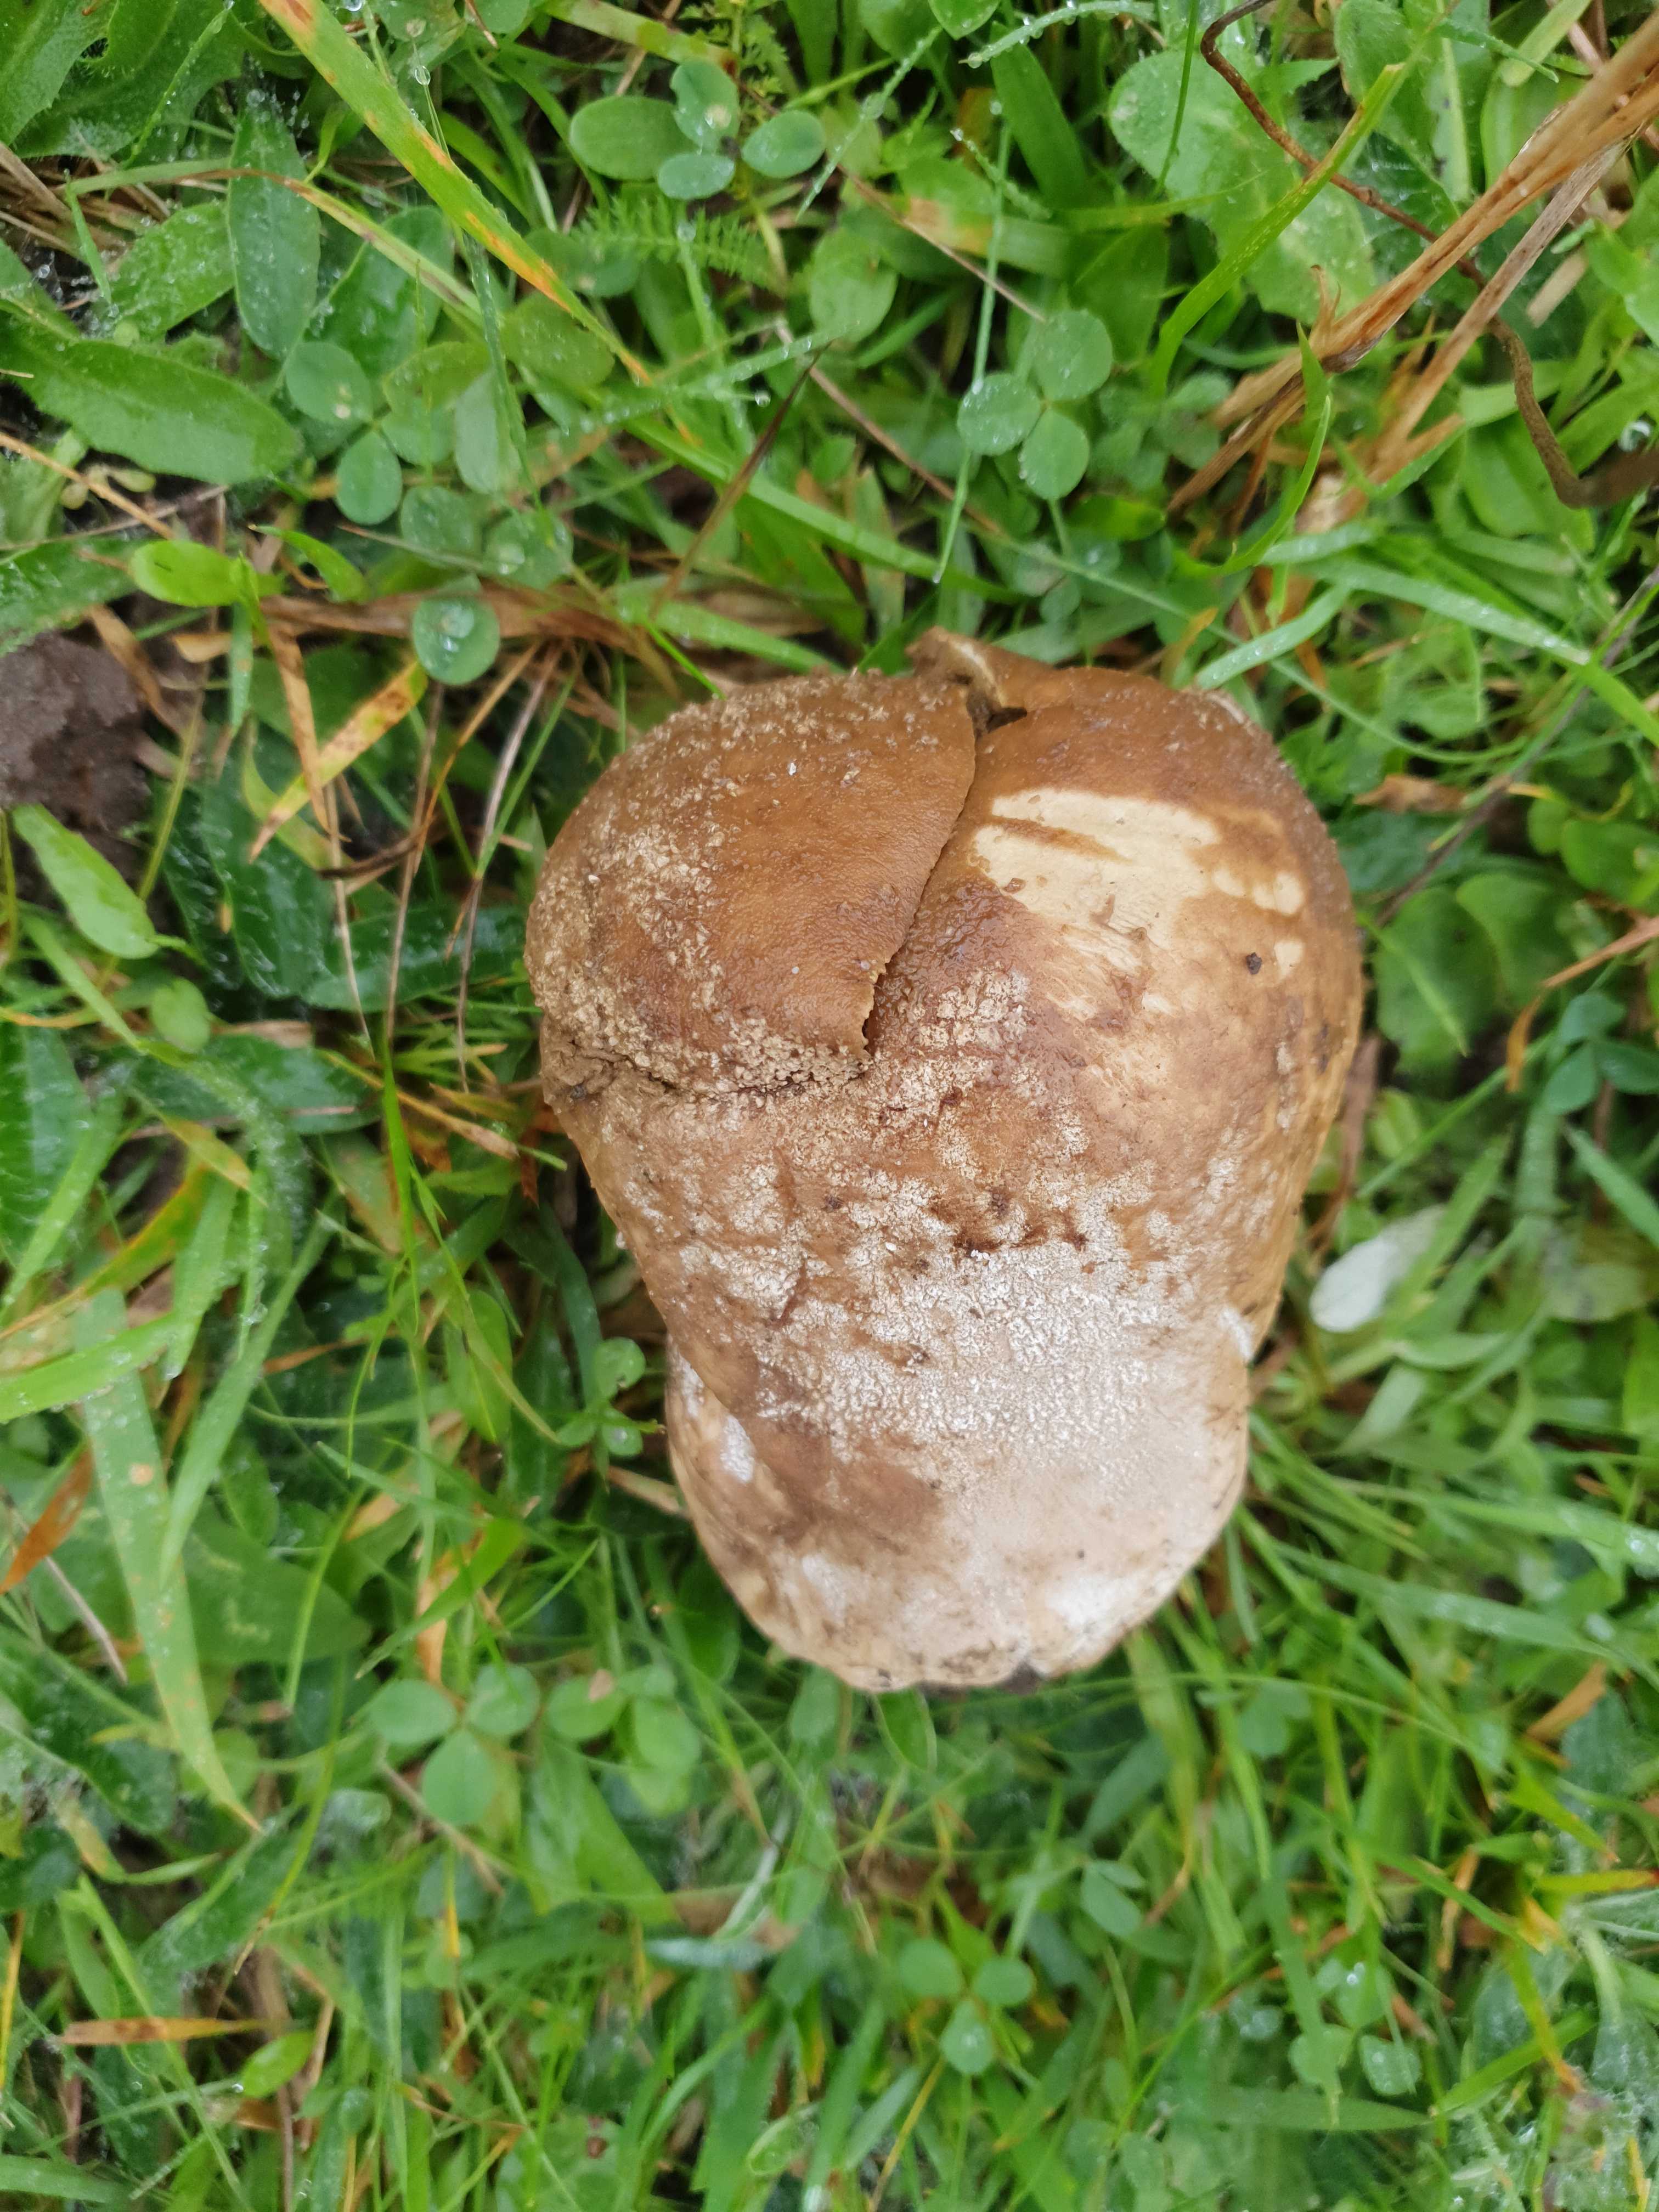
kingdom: Fungi
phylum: Basidiomycota
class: Agaricomycetes
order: Agaricales
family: Lycoperdaceae
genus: Bovistella
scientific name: Bovistella utriformis
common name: skællet støvbold
